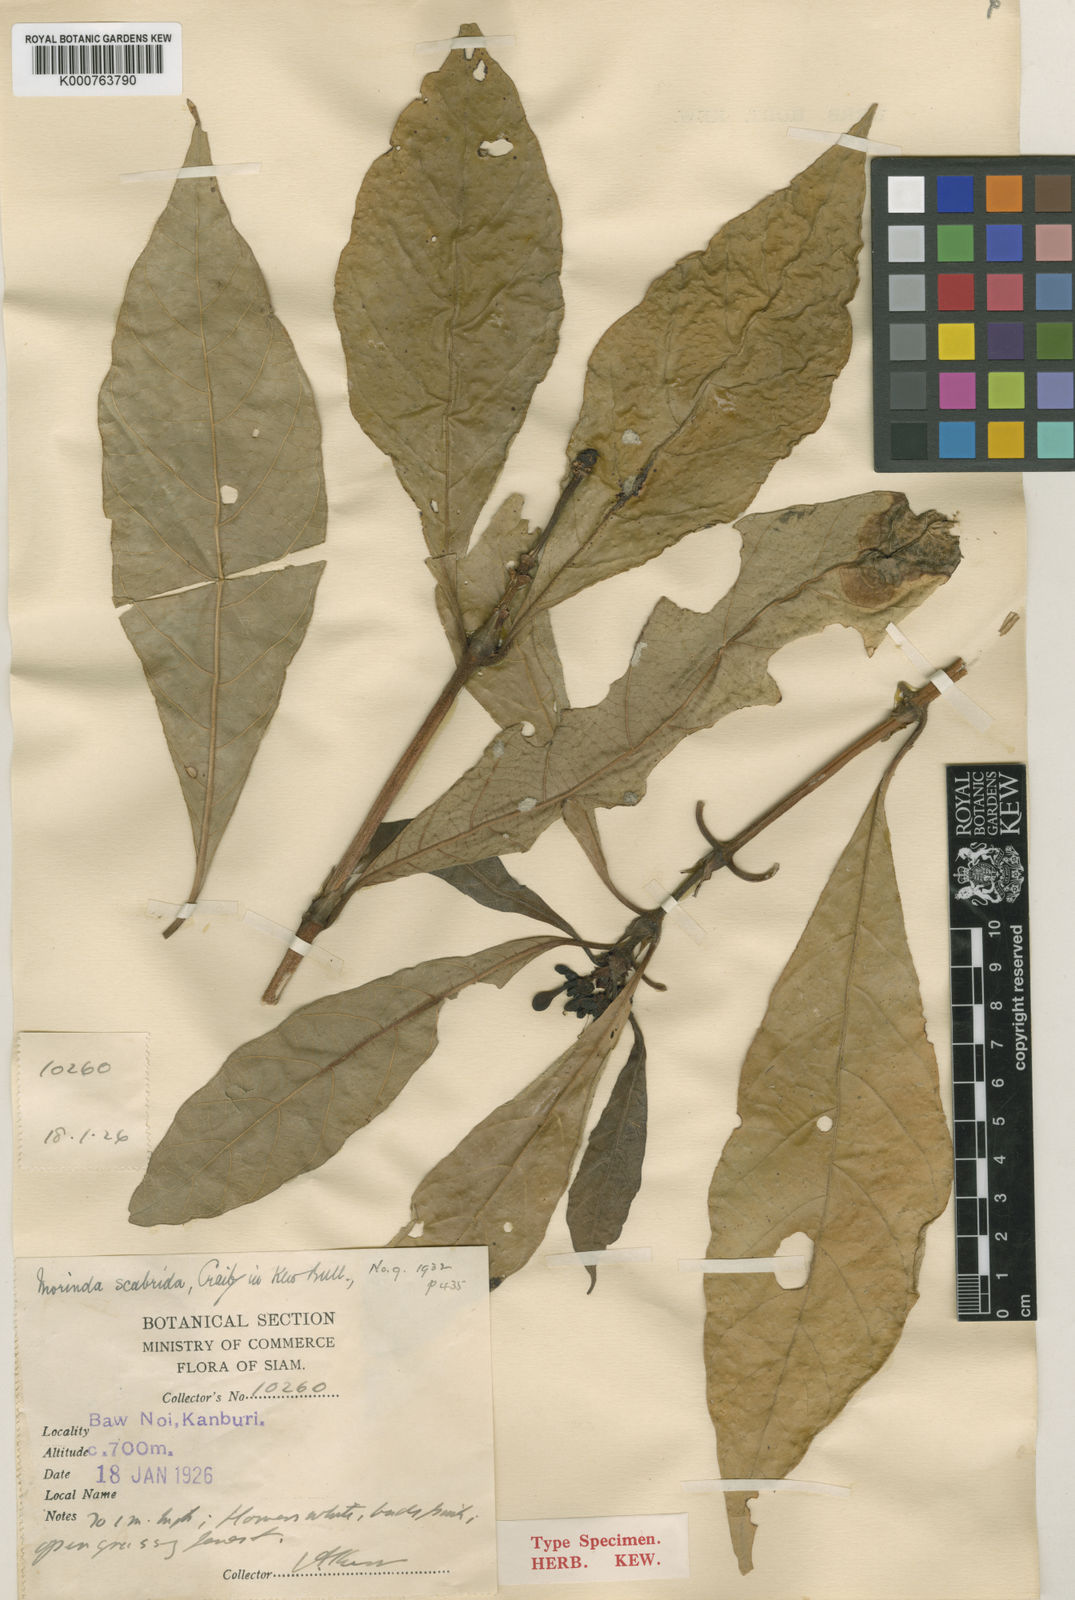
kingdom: Plantae
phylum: Tracheophyta
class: Magnoliopsida
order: Gentianales
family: Rubiaceae
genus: Morinda
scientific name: Morinda scabrida
